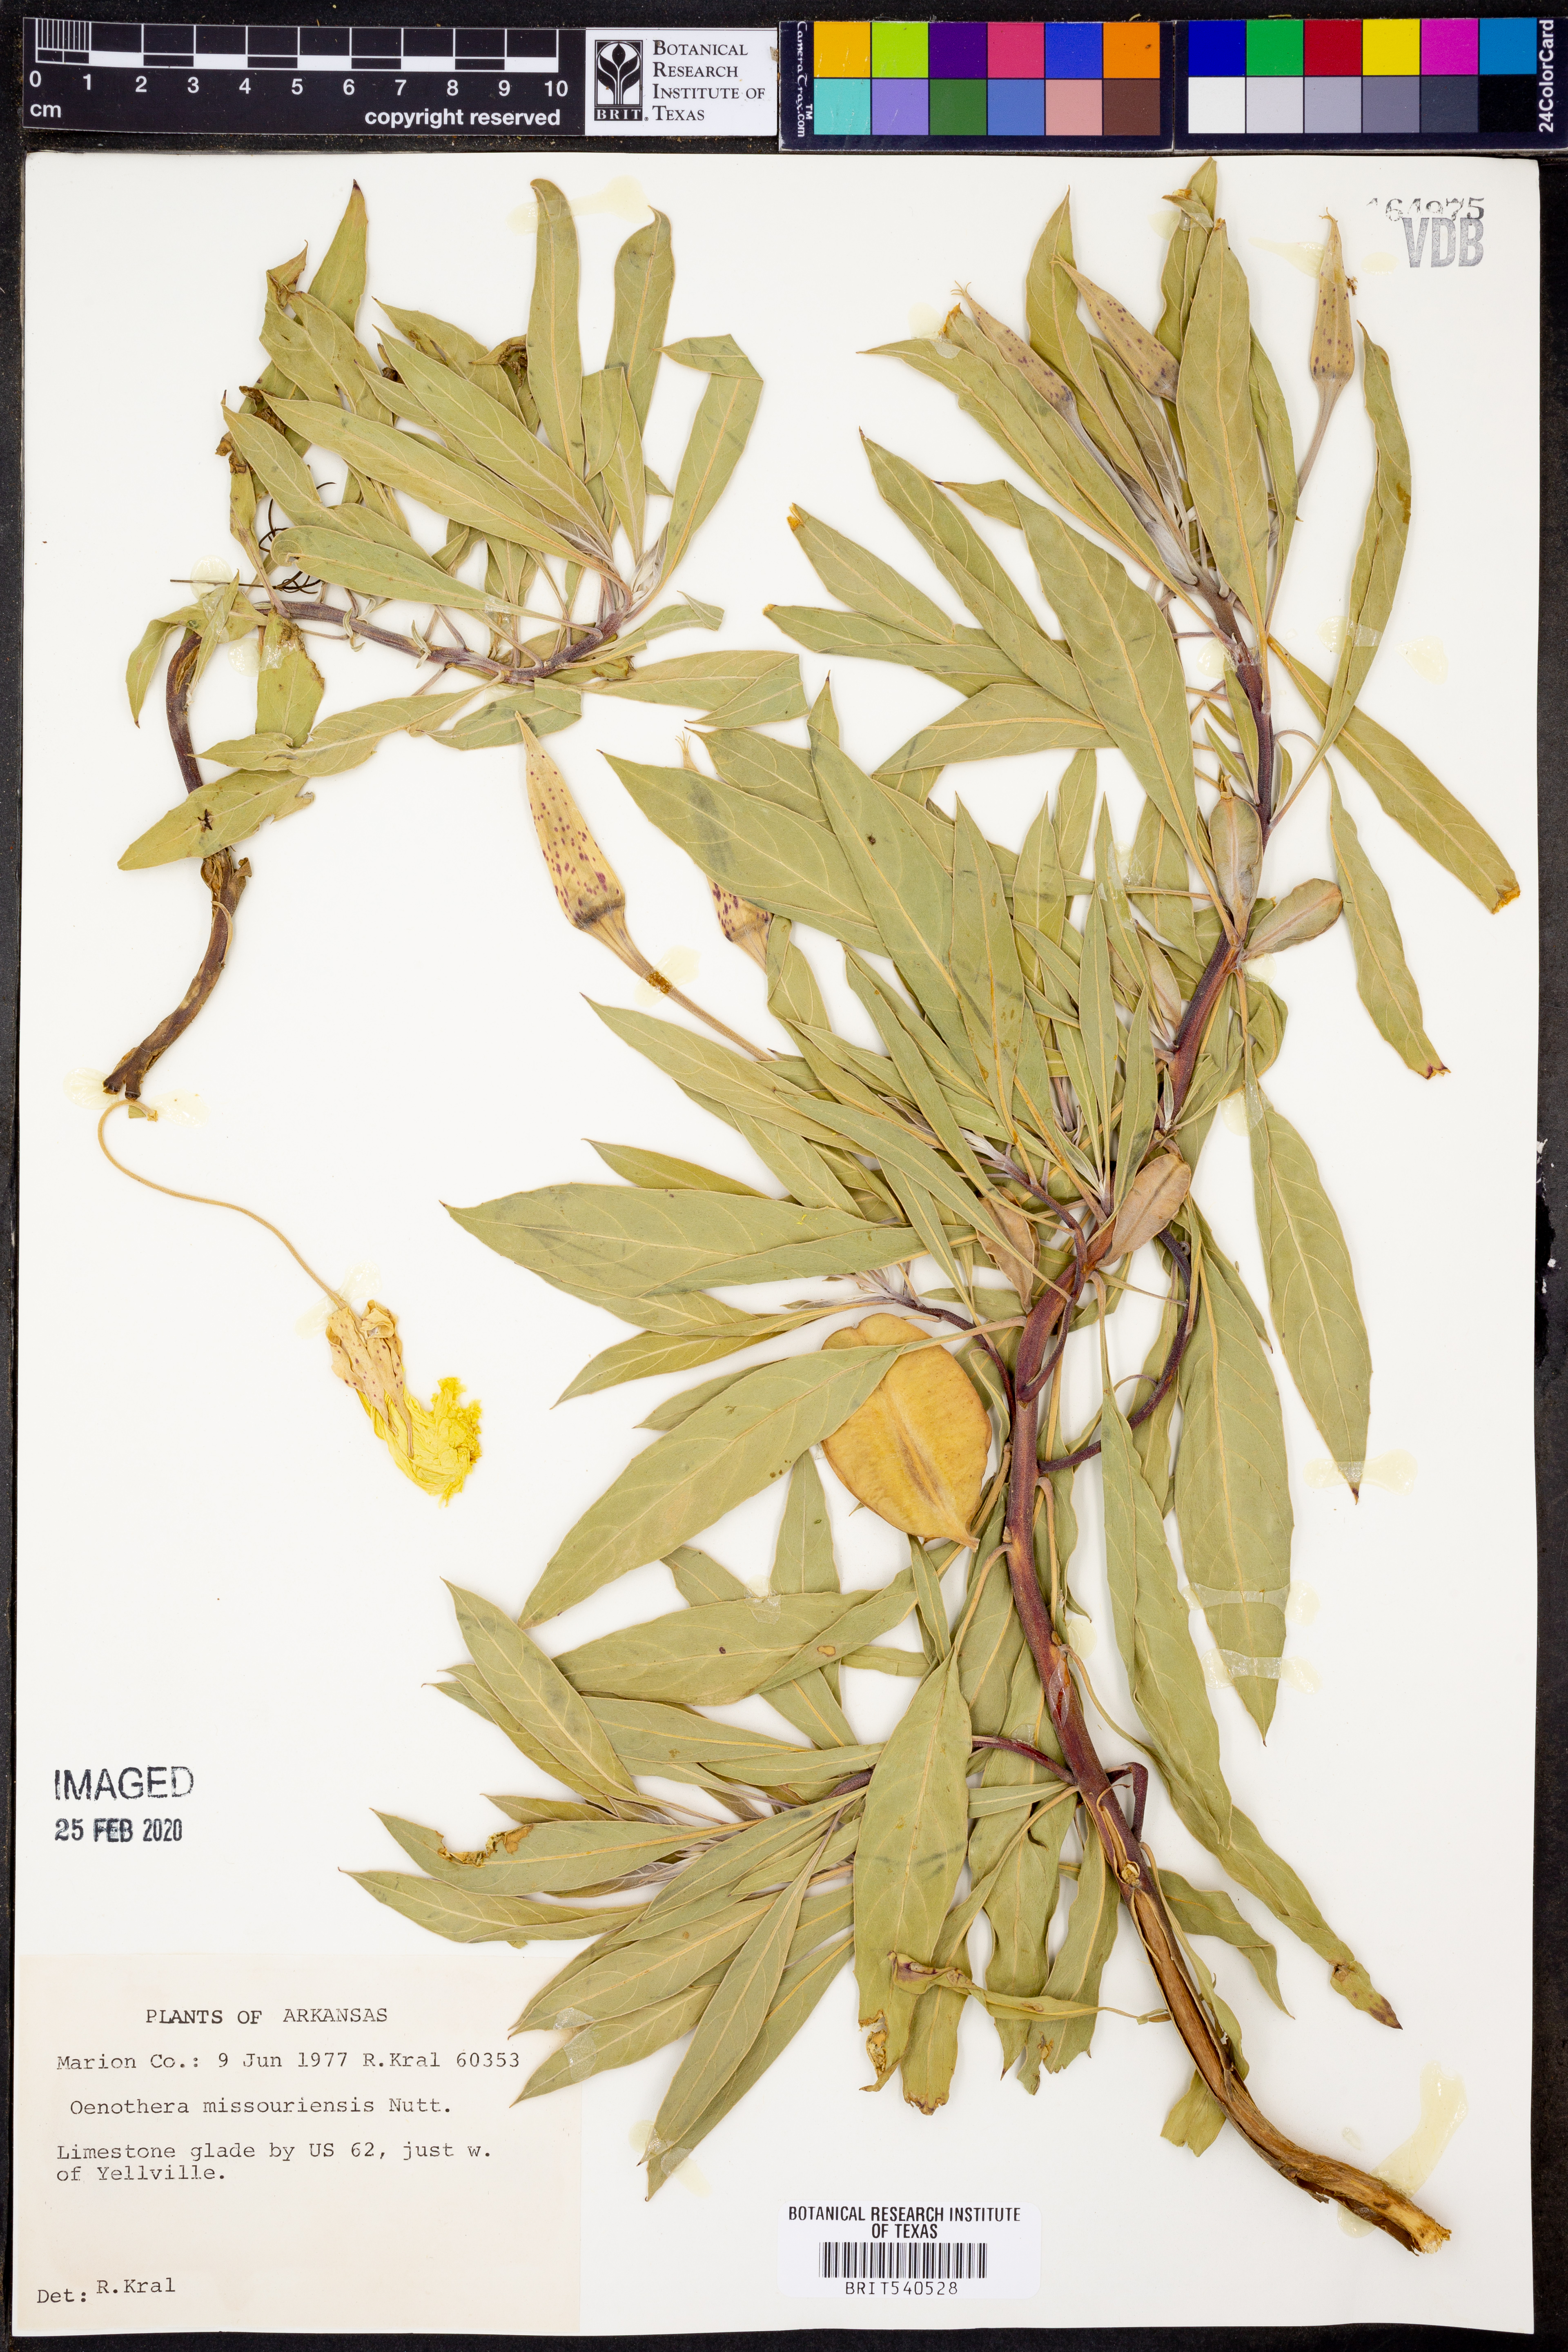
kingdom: Plantae
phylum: Tracheophyta
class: Magnoliopsida
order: Myrtales
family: Onagraceae
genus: Oenothera
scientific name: Oenothera macrocarpa
